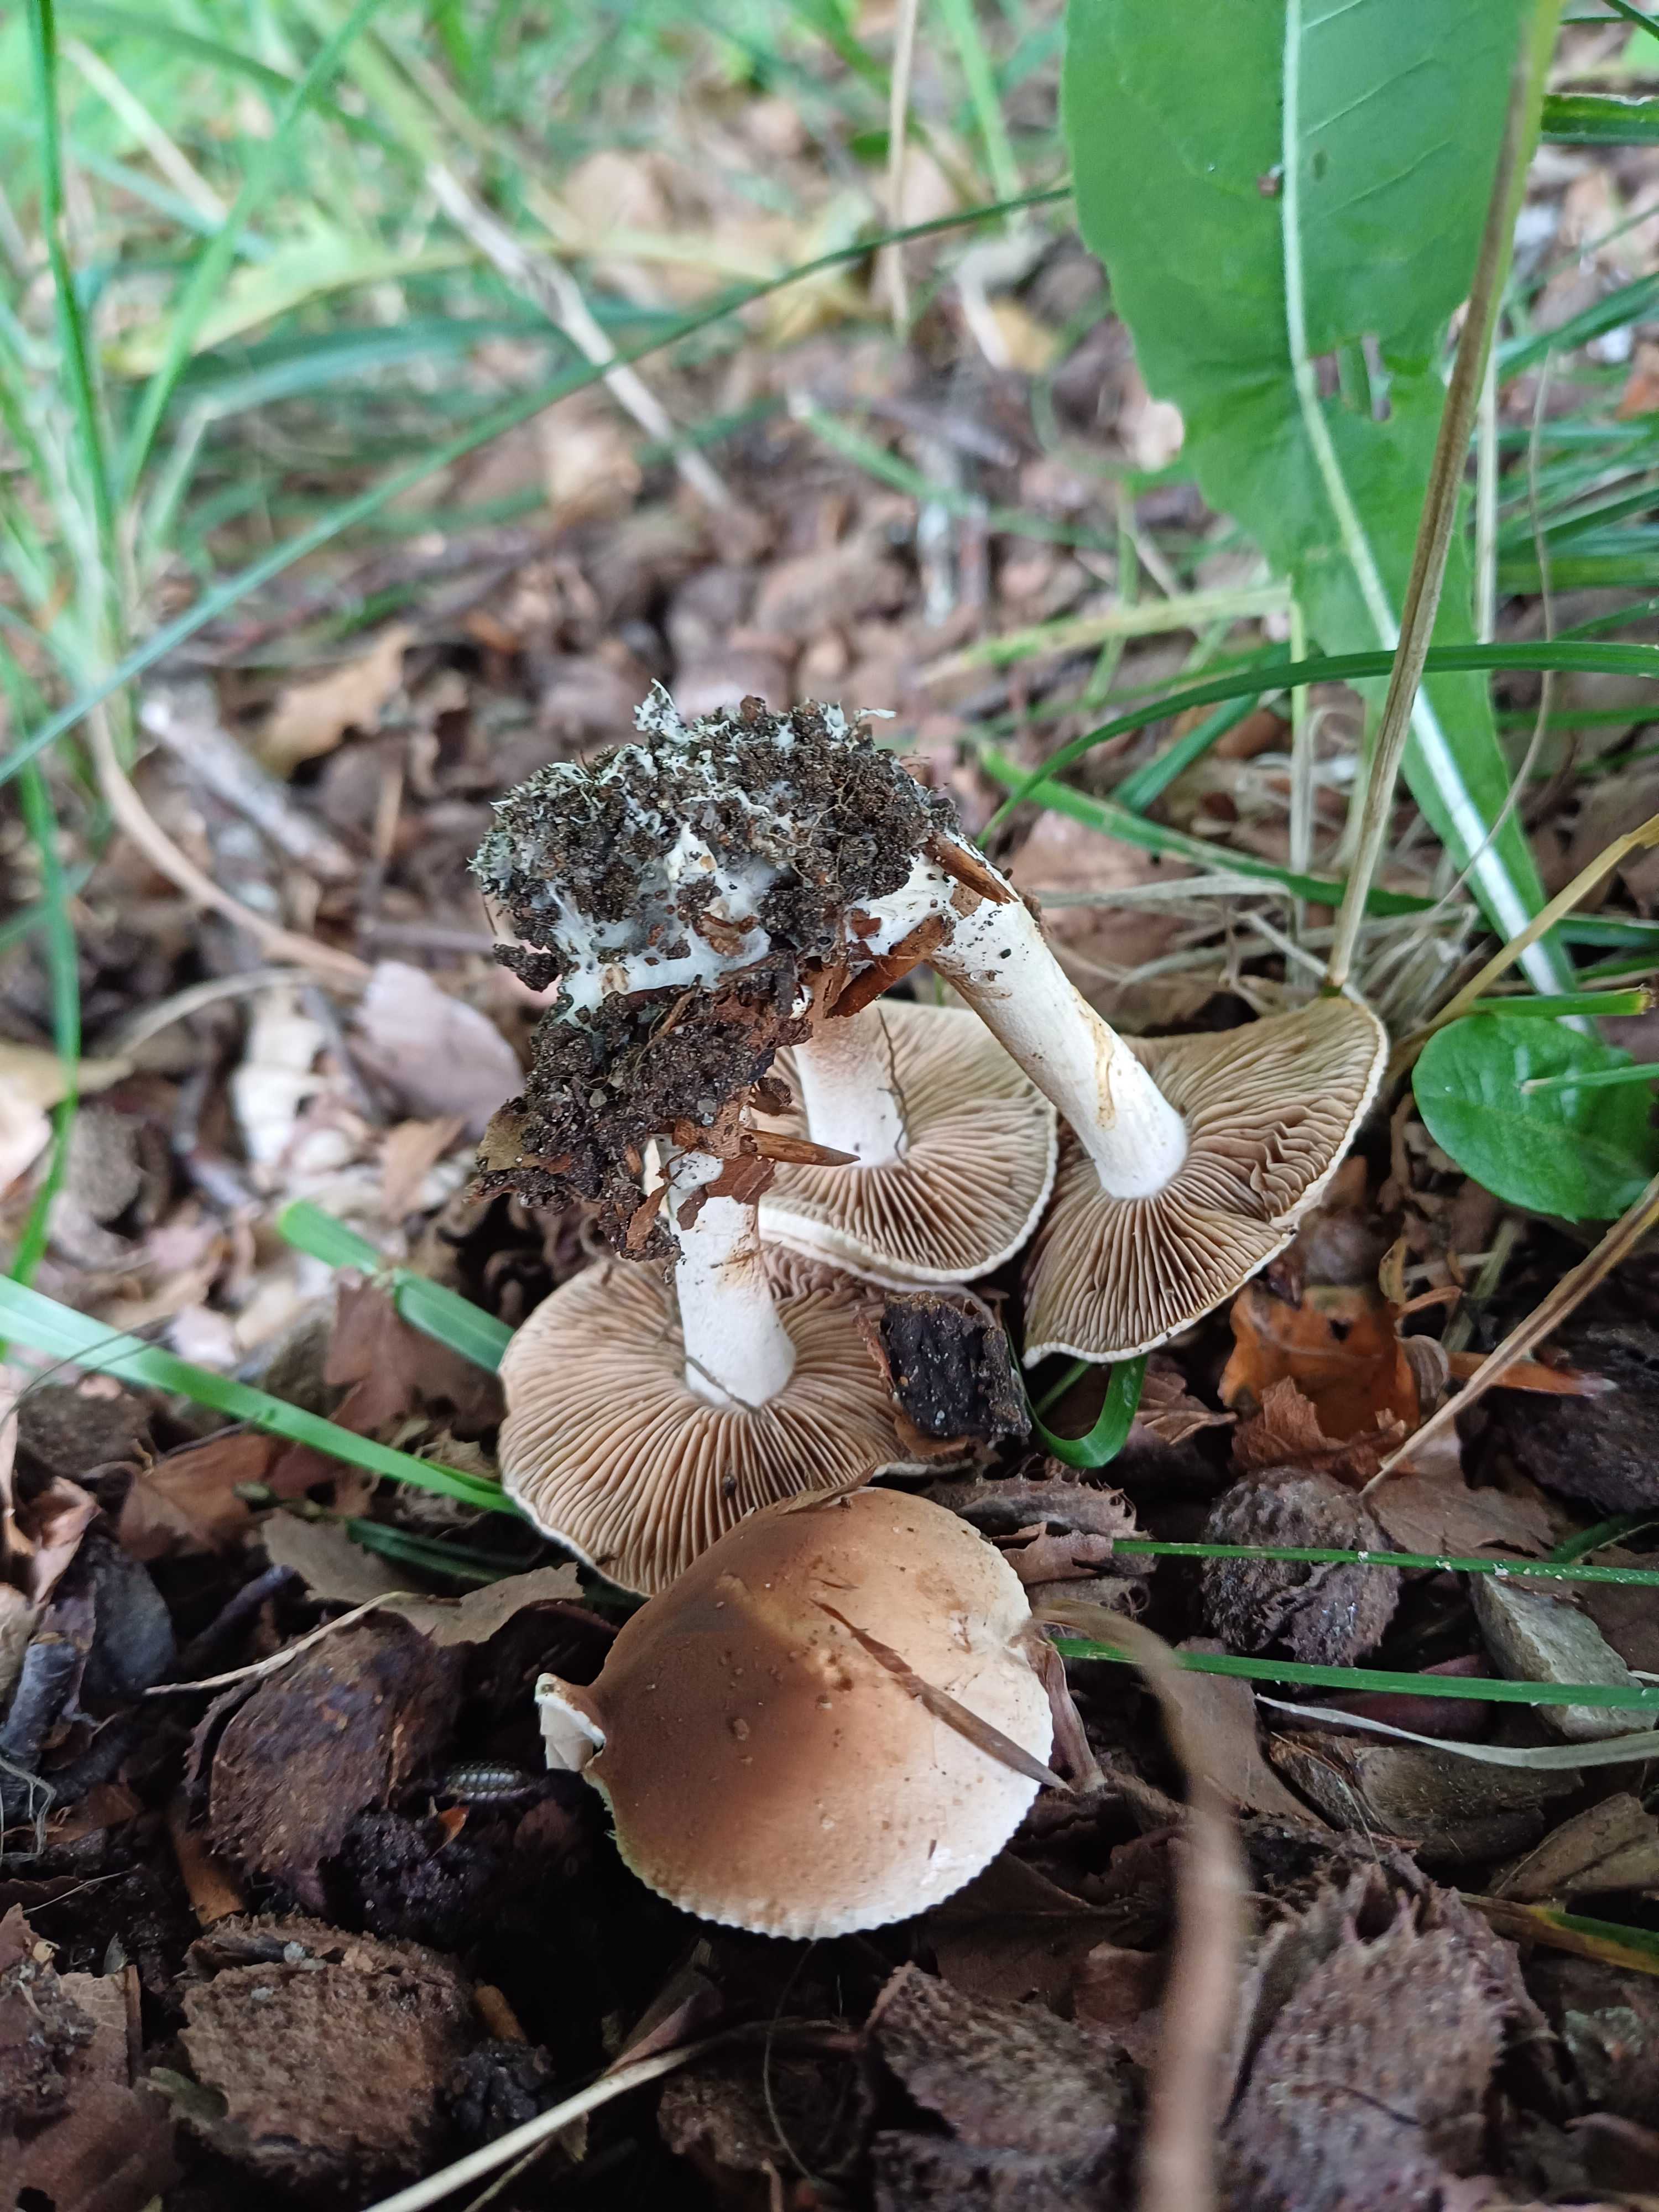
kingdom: Fungi
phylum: Basidiomycota
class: Agaricomycetes
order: Agaricales
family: Hymenogastraceae
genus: Hebeloma
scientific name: Hebeloma
